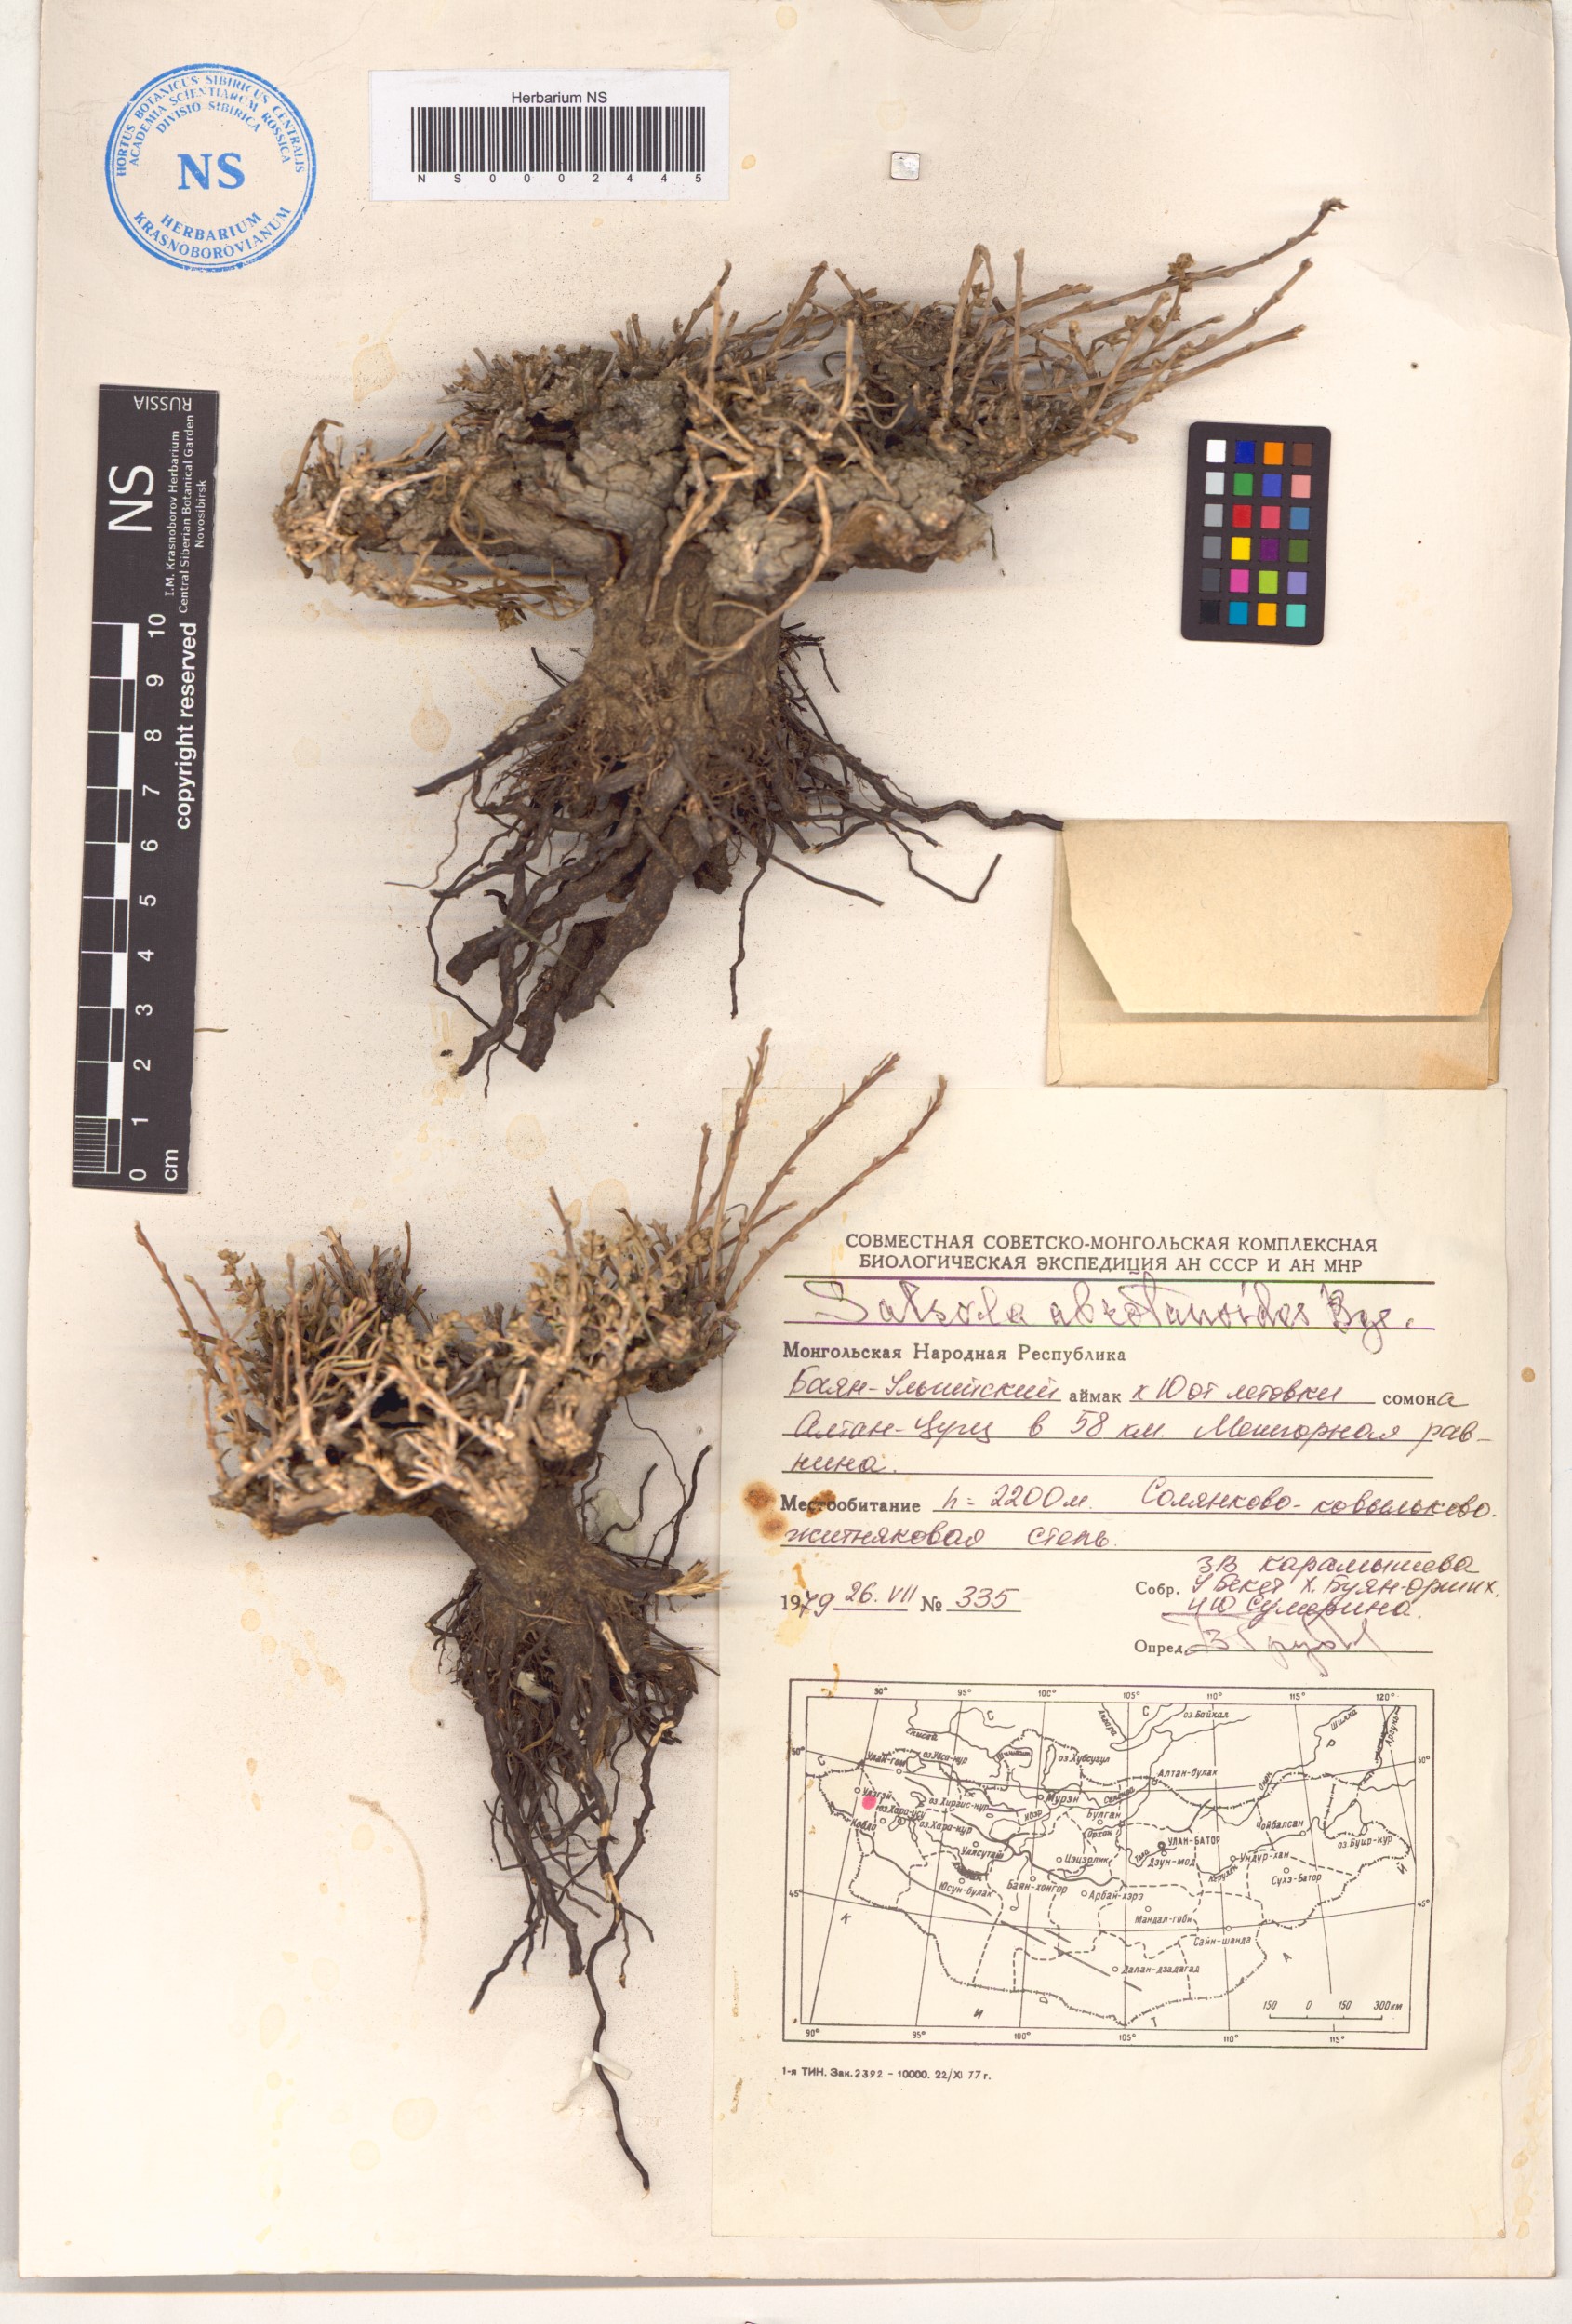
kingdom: Plantae
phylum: Tracheophyta
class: Magnoliopsida
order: Caryophyllales
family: Amaranthaceae
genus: Oreosalsola
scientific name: Oreosalsola abrotanoides
